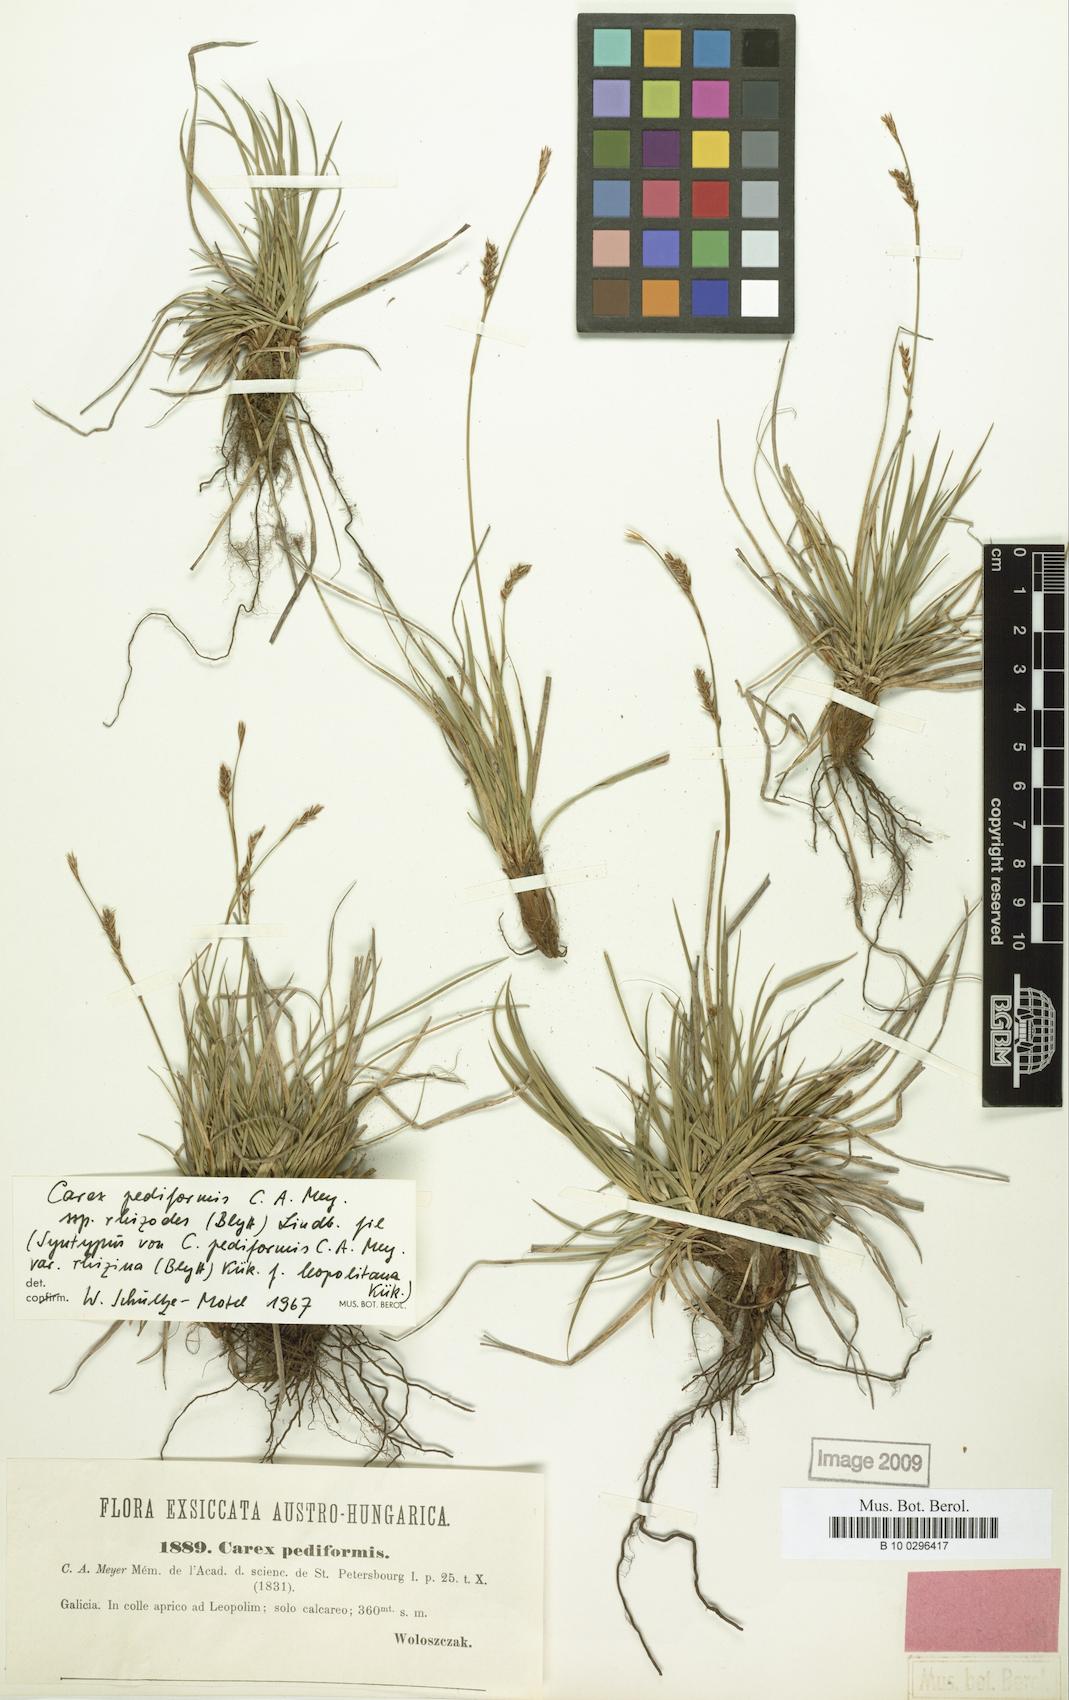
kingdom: Plantae
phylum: Tracheophyta
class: Liliopsida
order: Poales
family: Cyperaceae
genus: Carex
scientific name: Carex rhizina
